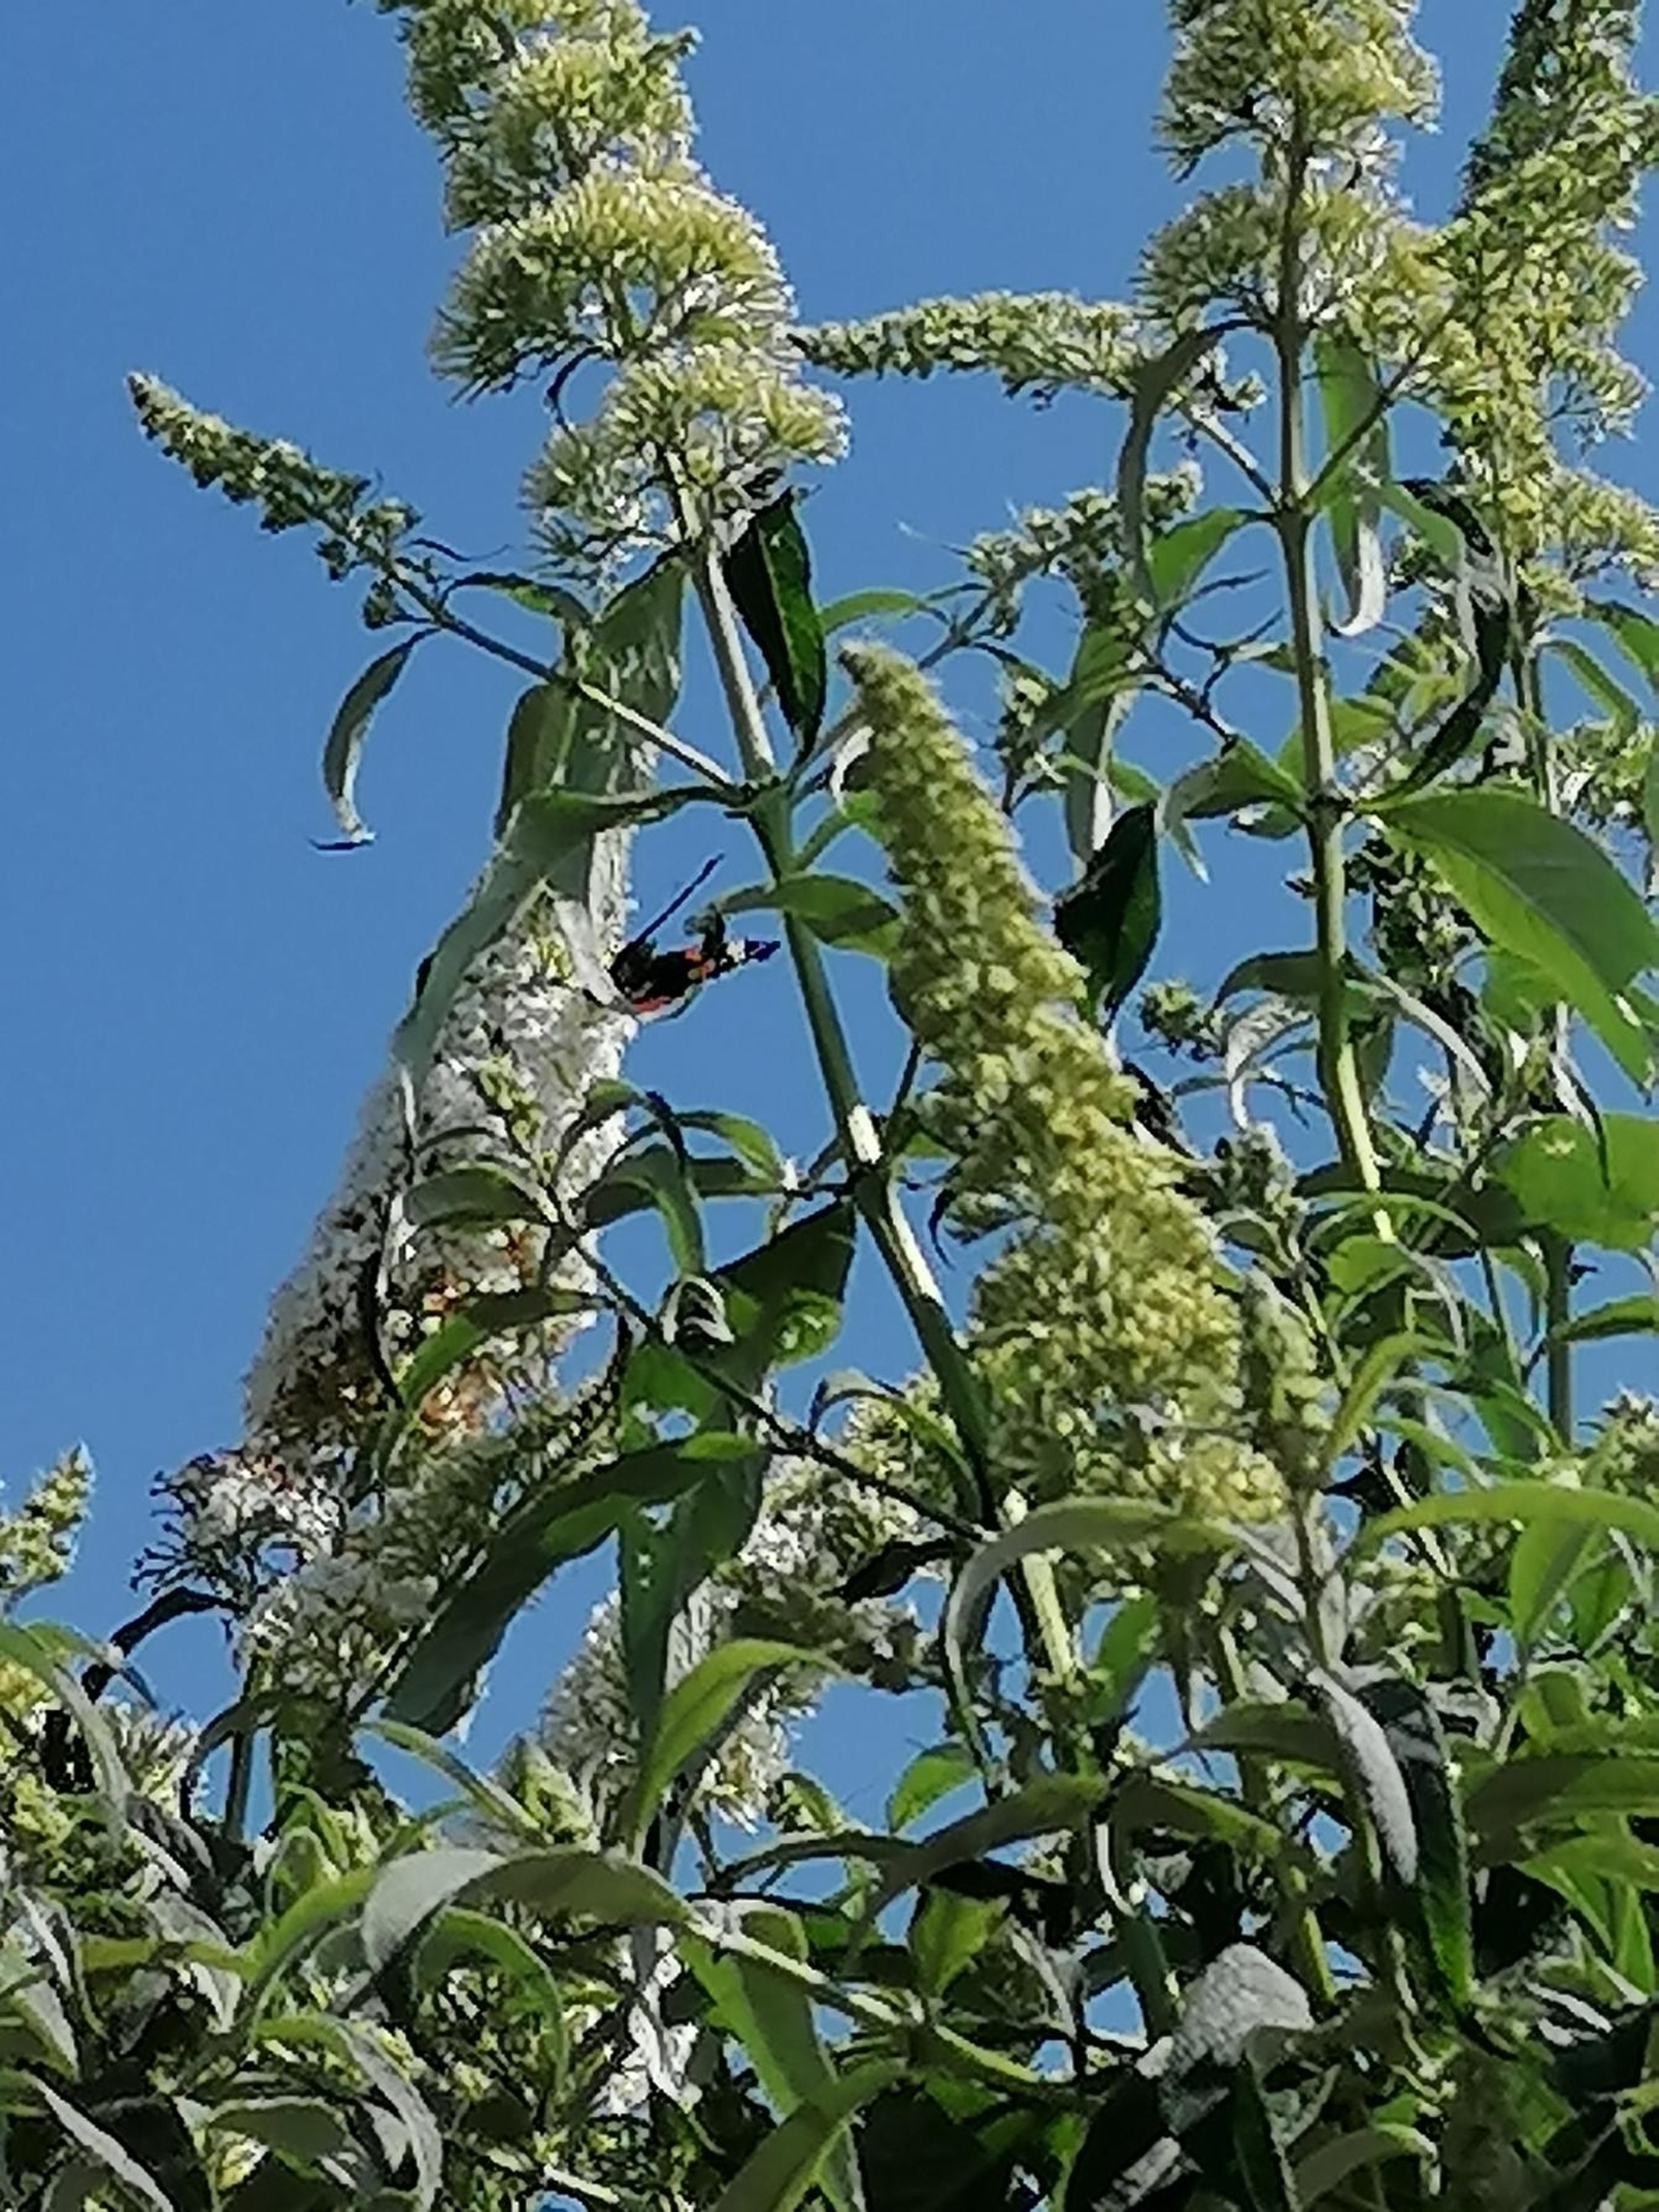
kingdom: Animalia
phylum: Arthropoda
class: Insecta
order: Lepidoptera
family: Nymphalidae
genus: Vanessa
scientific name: Vanessa atalanta
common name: Admiral
